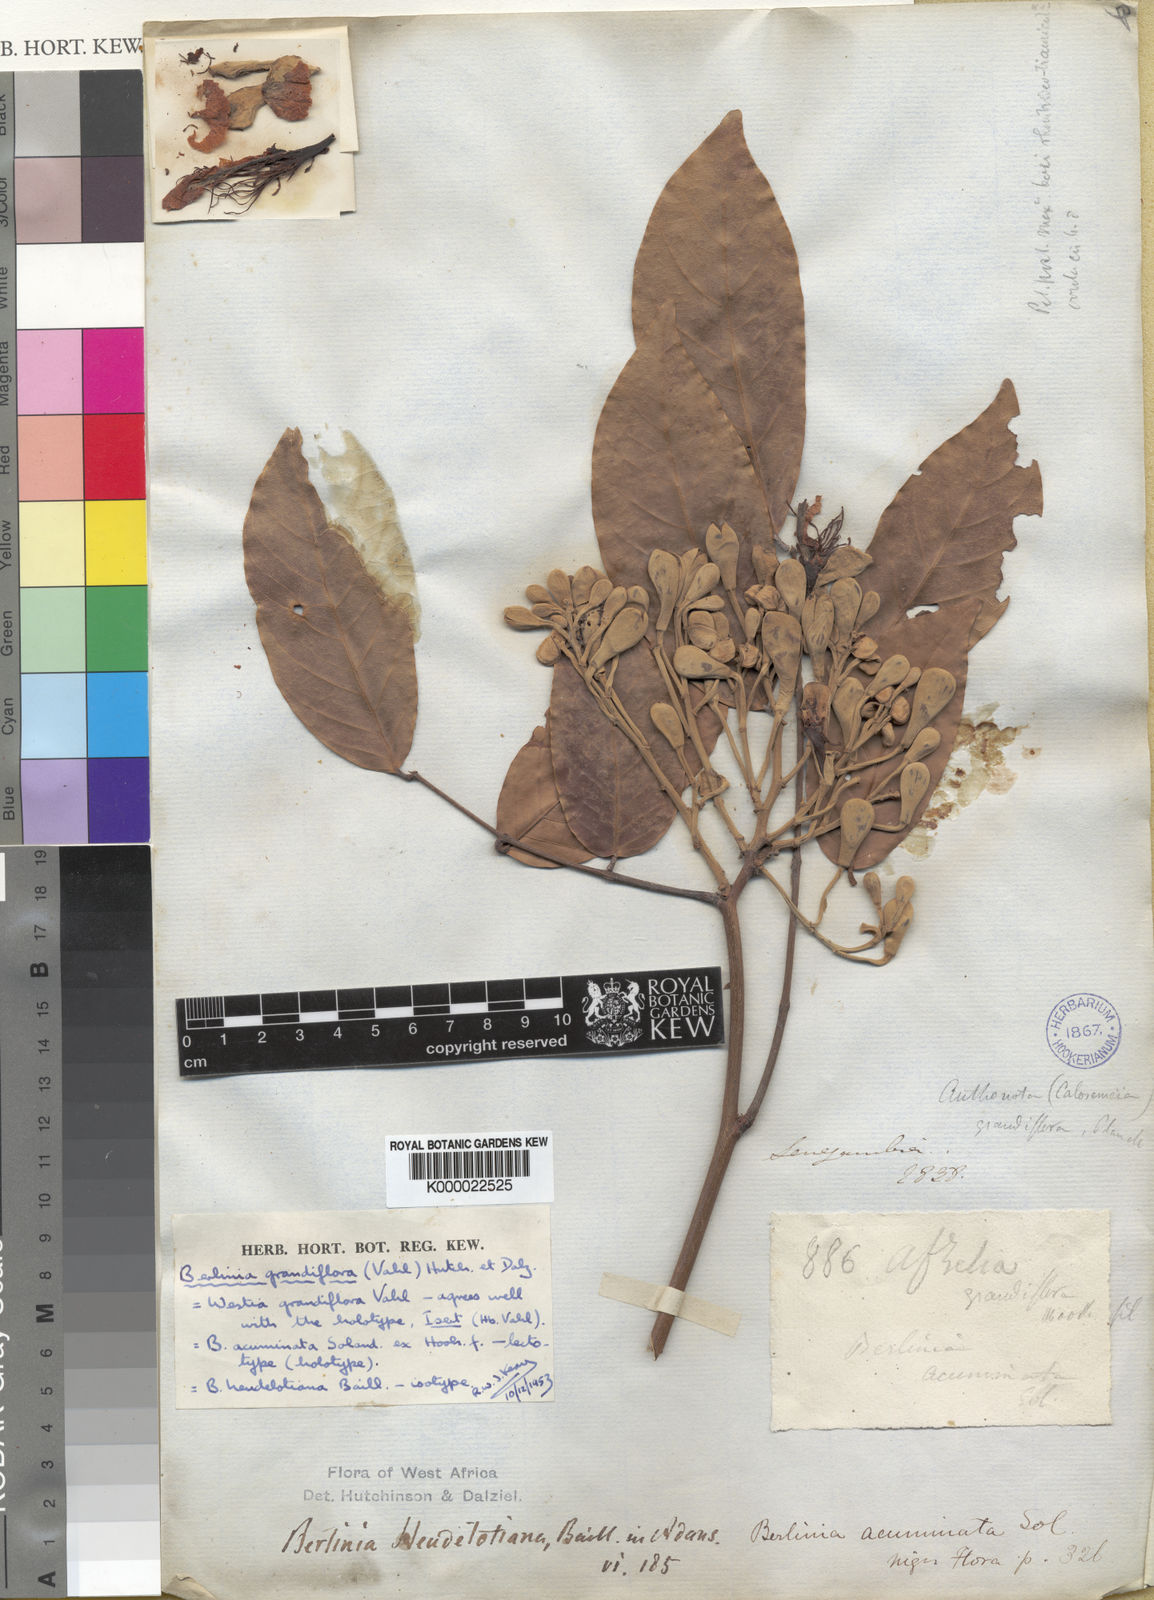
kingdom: Plantae
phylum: Tracheophyta
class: Magnoliopsida
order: Fabales
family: Fabaceae
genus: Berlinia
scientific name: Berlinia grandiflora
